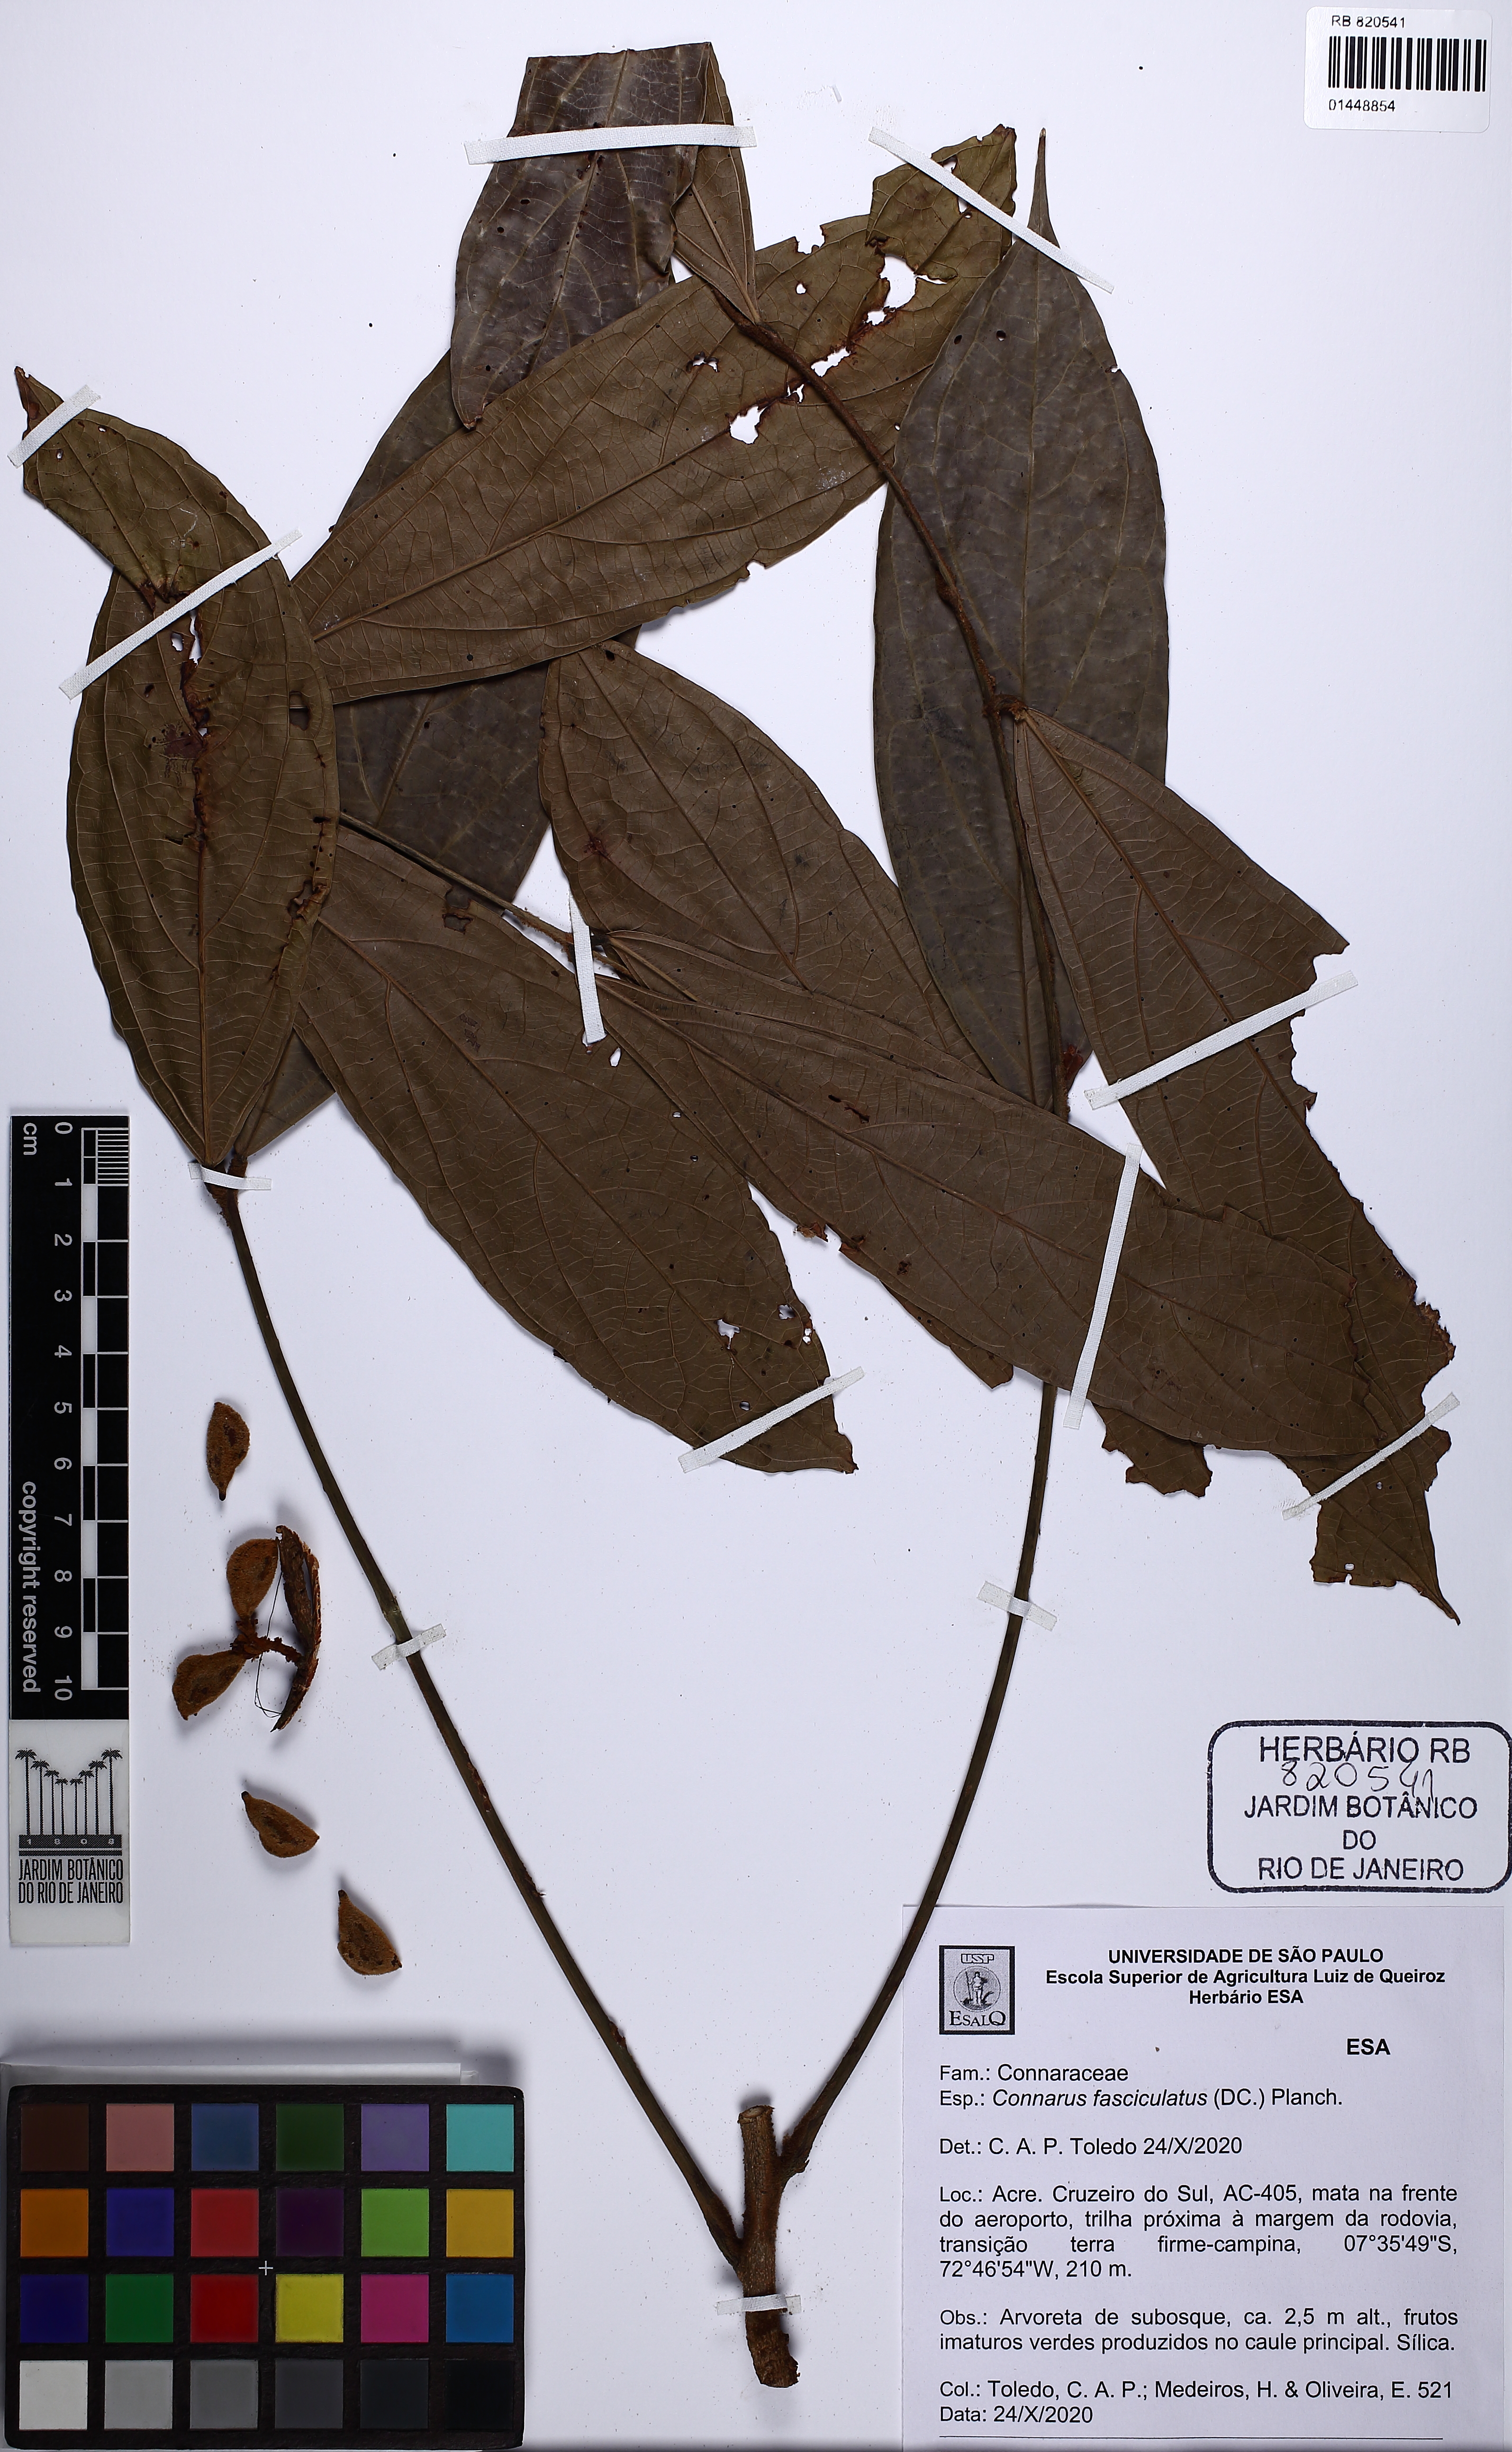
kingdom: Plantae
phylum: Tracheophyta
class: Magnoliopsida
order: Oxalidales
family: Connaraceae
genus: Connarus
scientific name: Connarus fasciculatus
